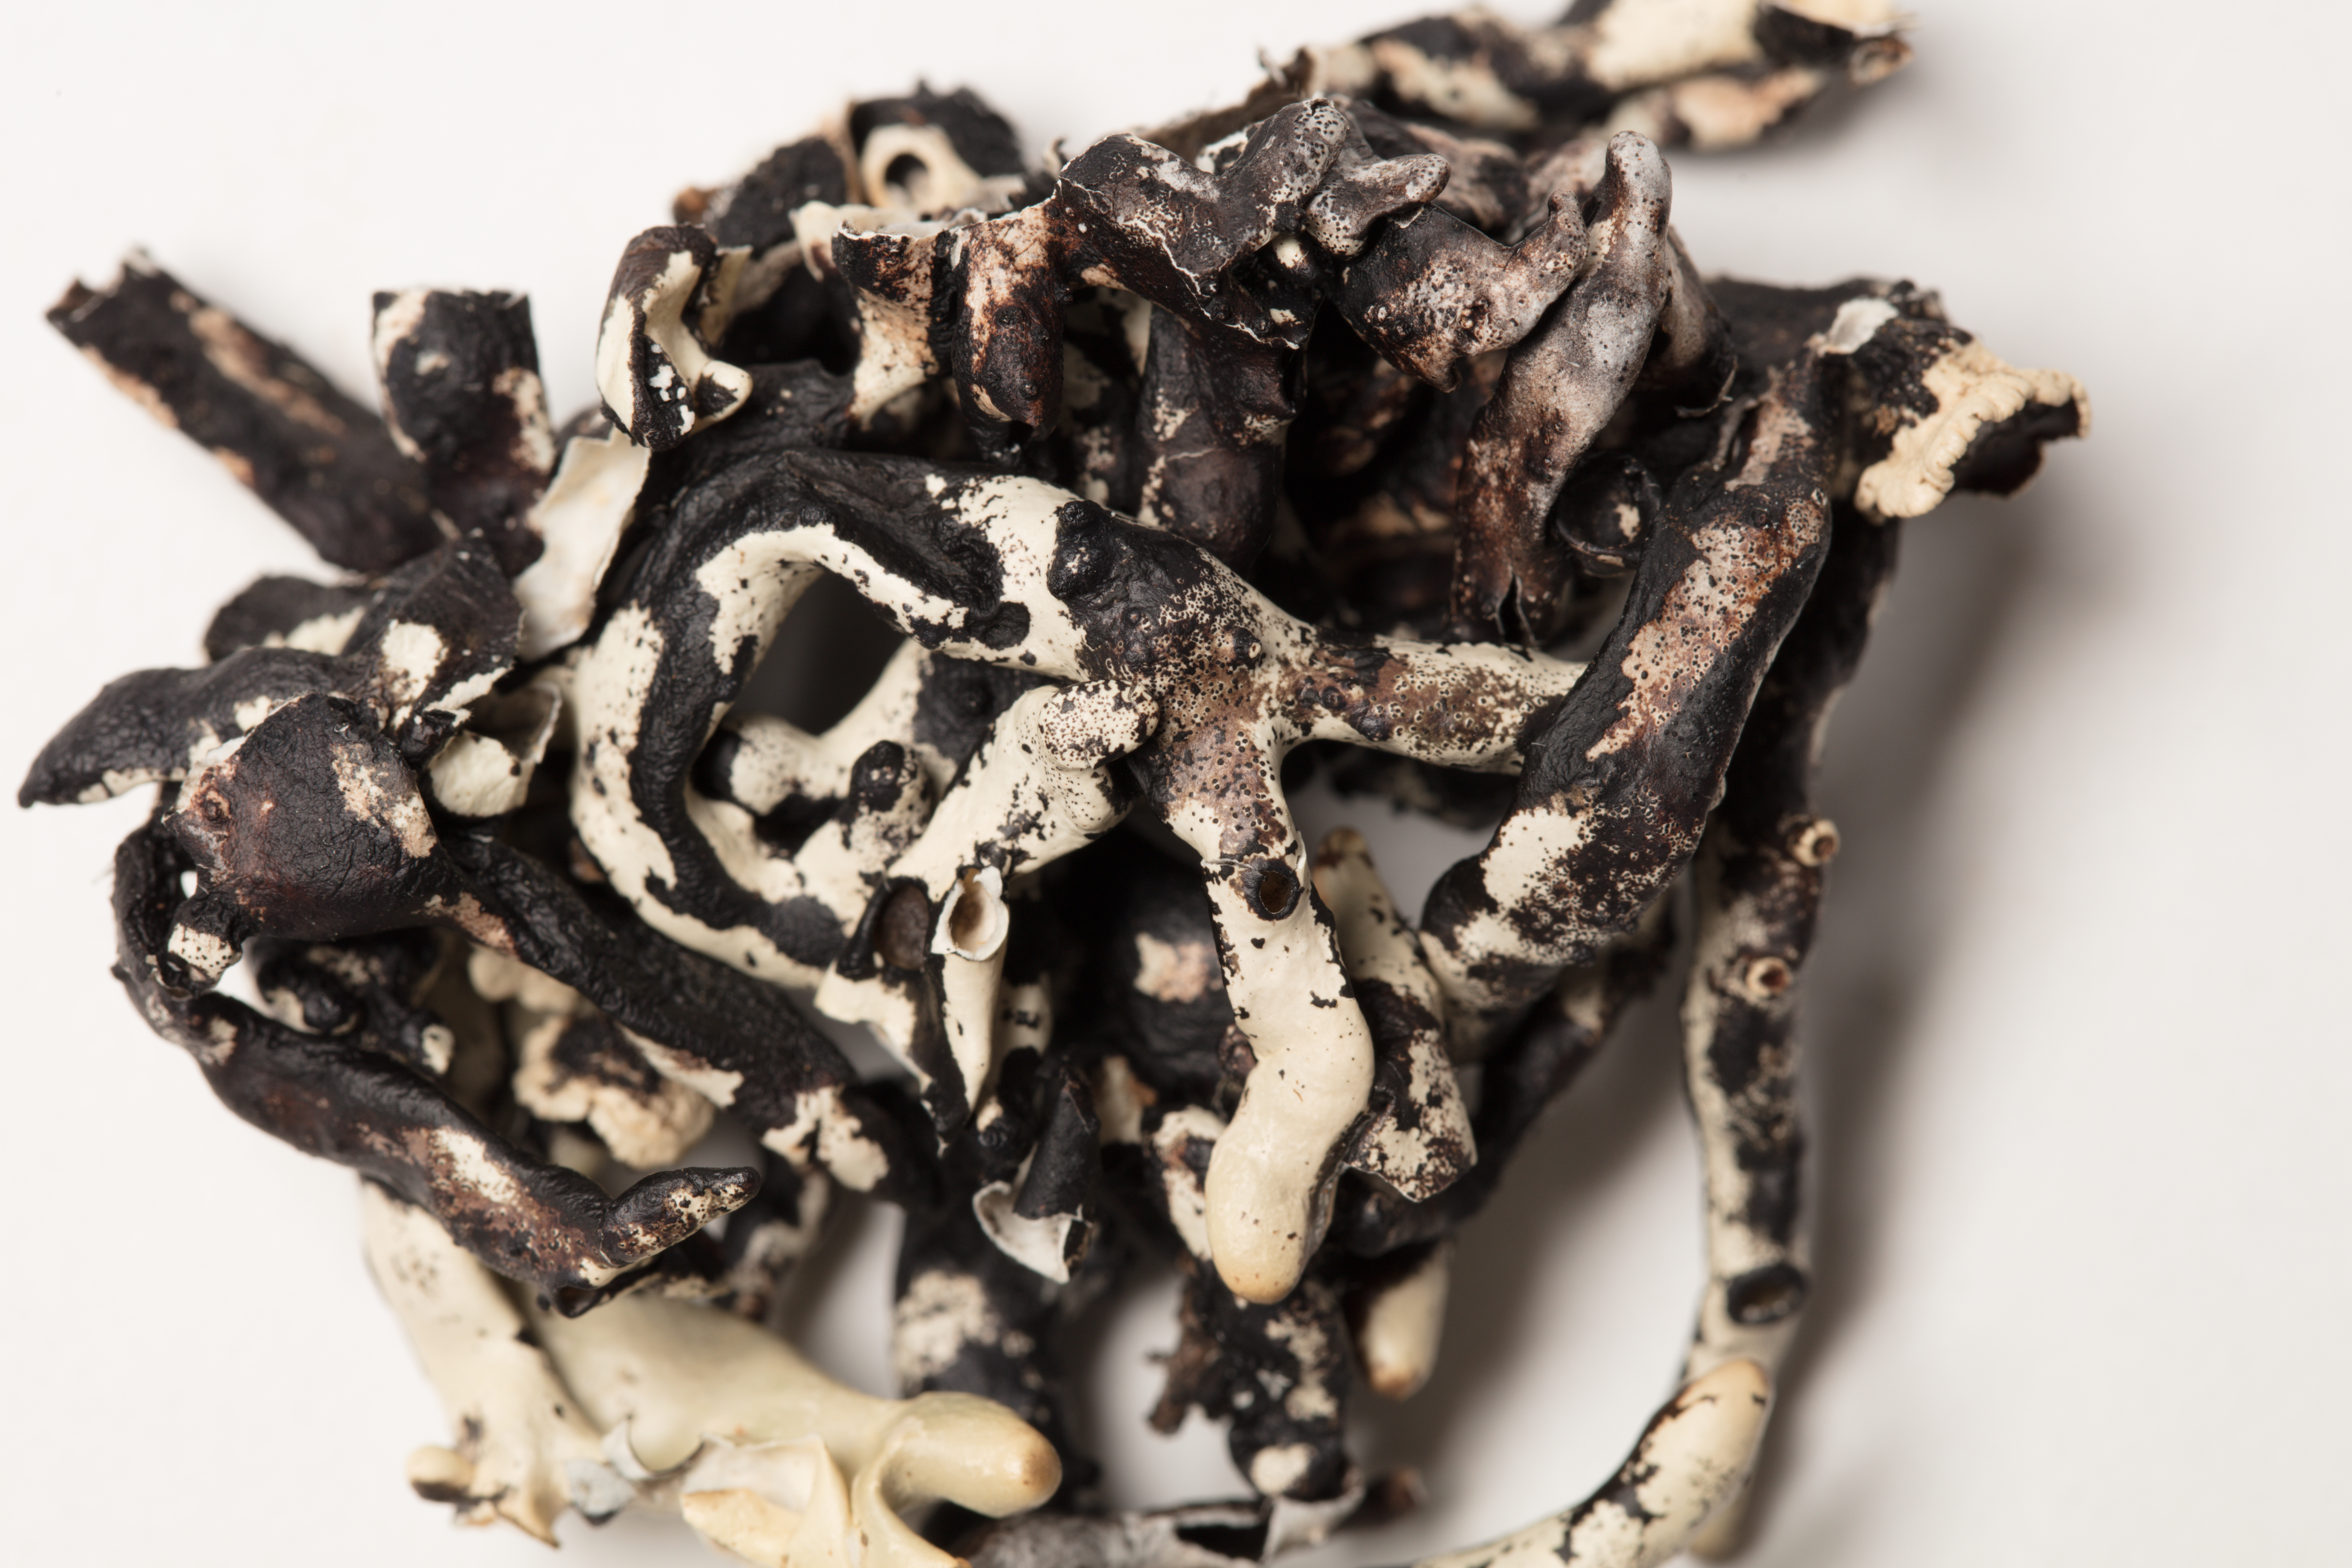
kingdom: Fungi
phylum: Ascomycota
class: Lecanoromycetes
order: Lecanorales
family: Parmeliaceae
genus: Menegazzia
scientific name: Menegazzia
